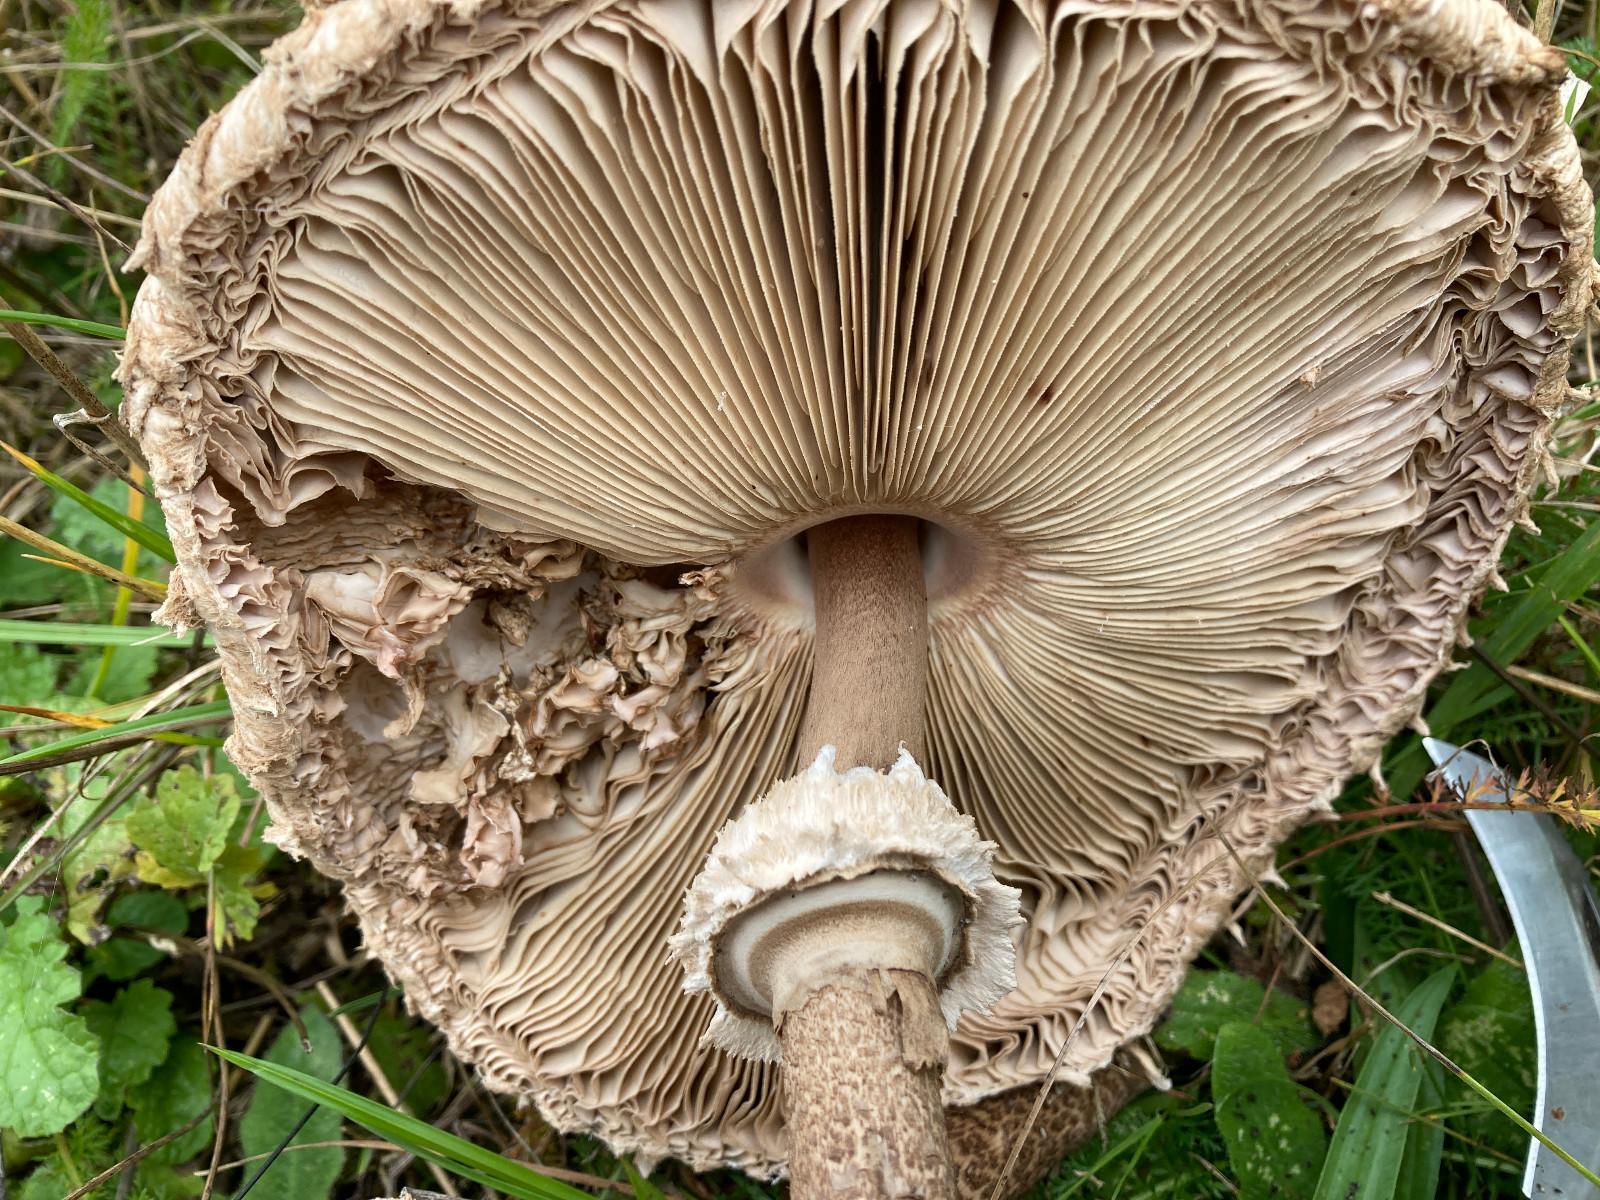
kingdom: Fungi
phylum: Basidiomycota
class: Agaricomycetes
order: Agaricales
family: Agaricaceae
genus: Macrolepiota
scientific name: Macrolepiota procera
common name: stor kæmpeparasolhat
